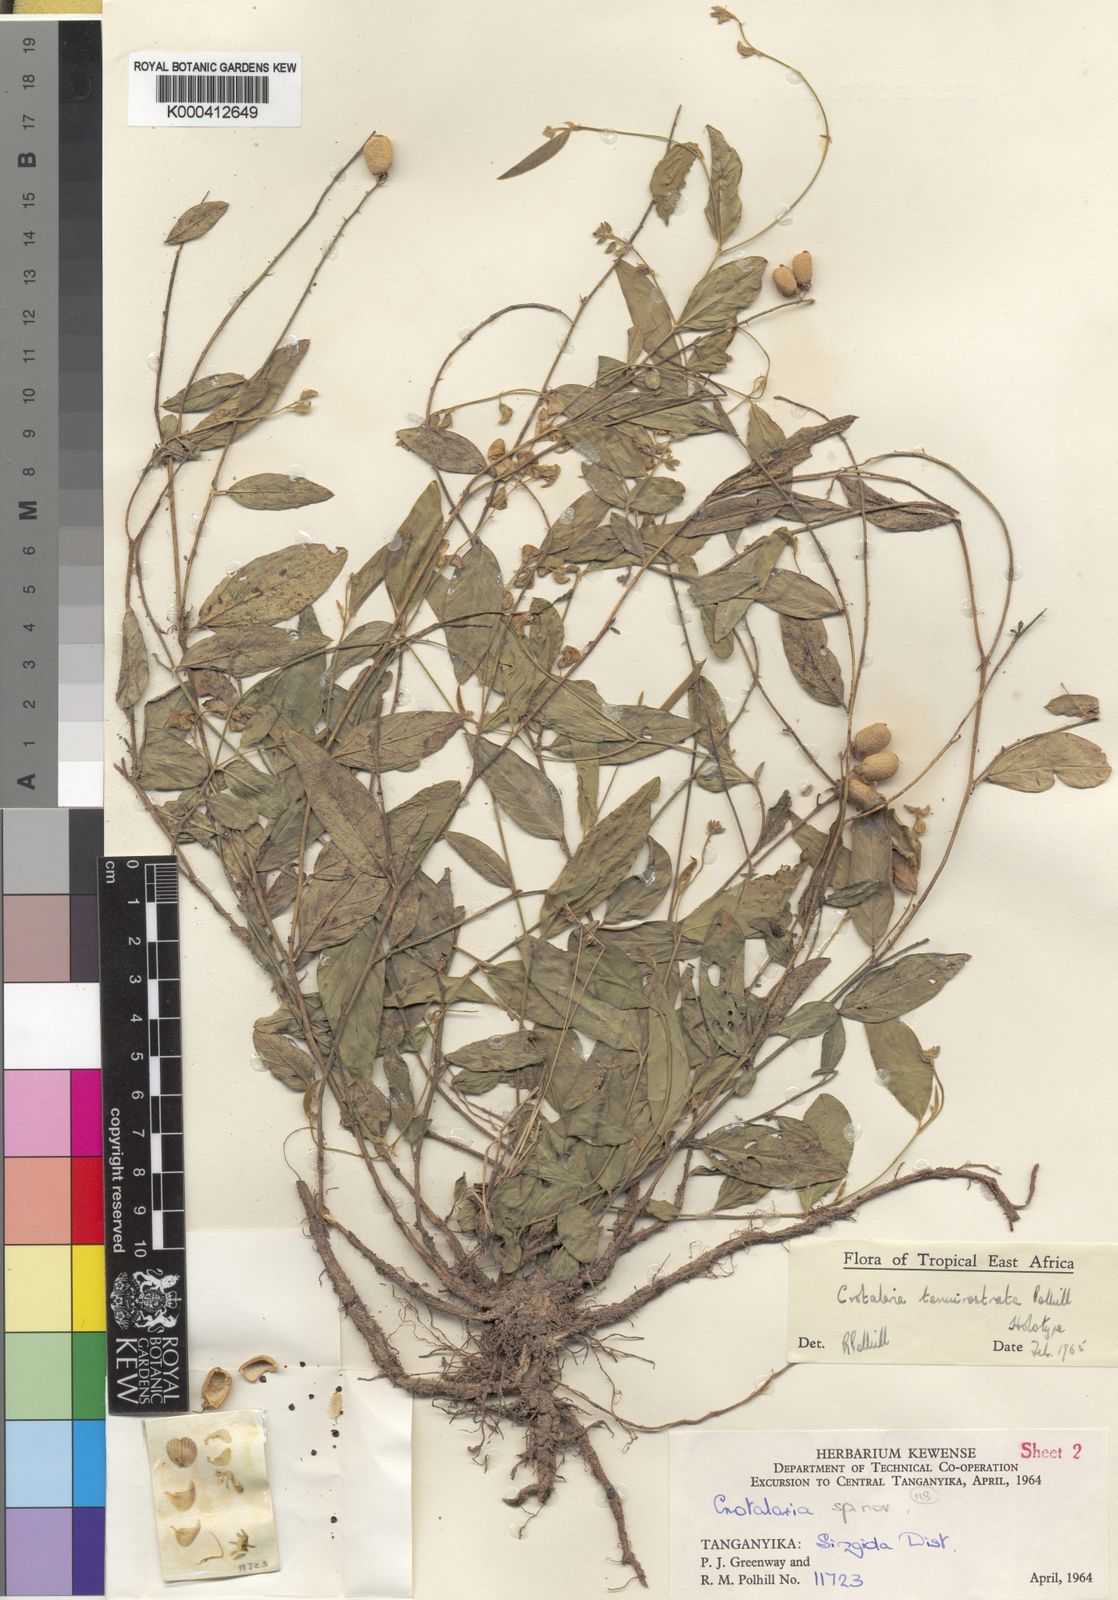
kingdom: Plantae
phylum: Tracheophyta
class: Magnoliopsida
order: Fabales
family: Fabaceae
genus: Crotalaria
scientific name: Crotalaria tenuirostrata
